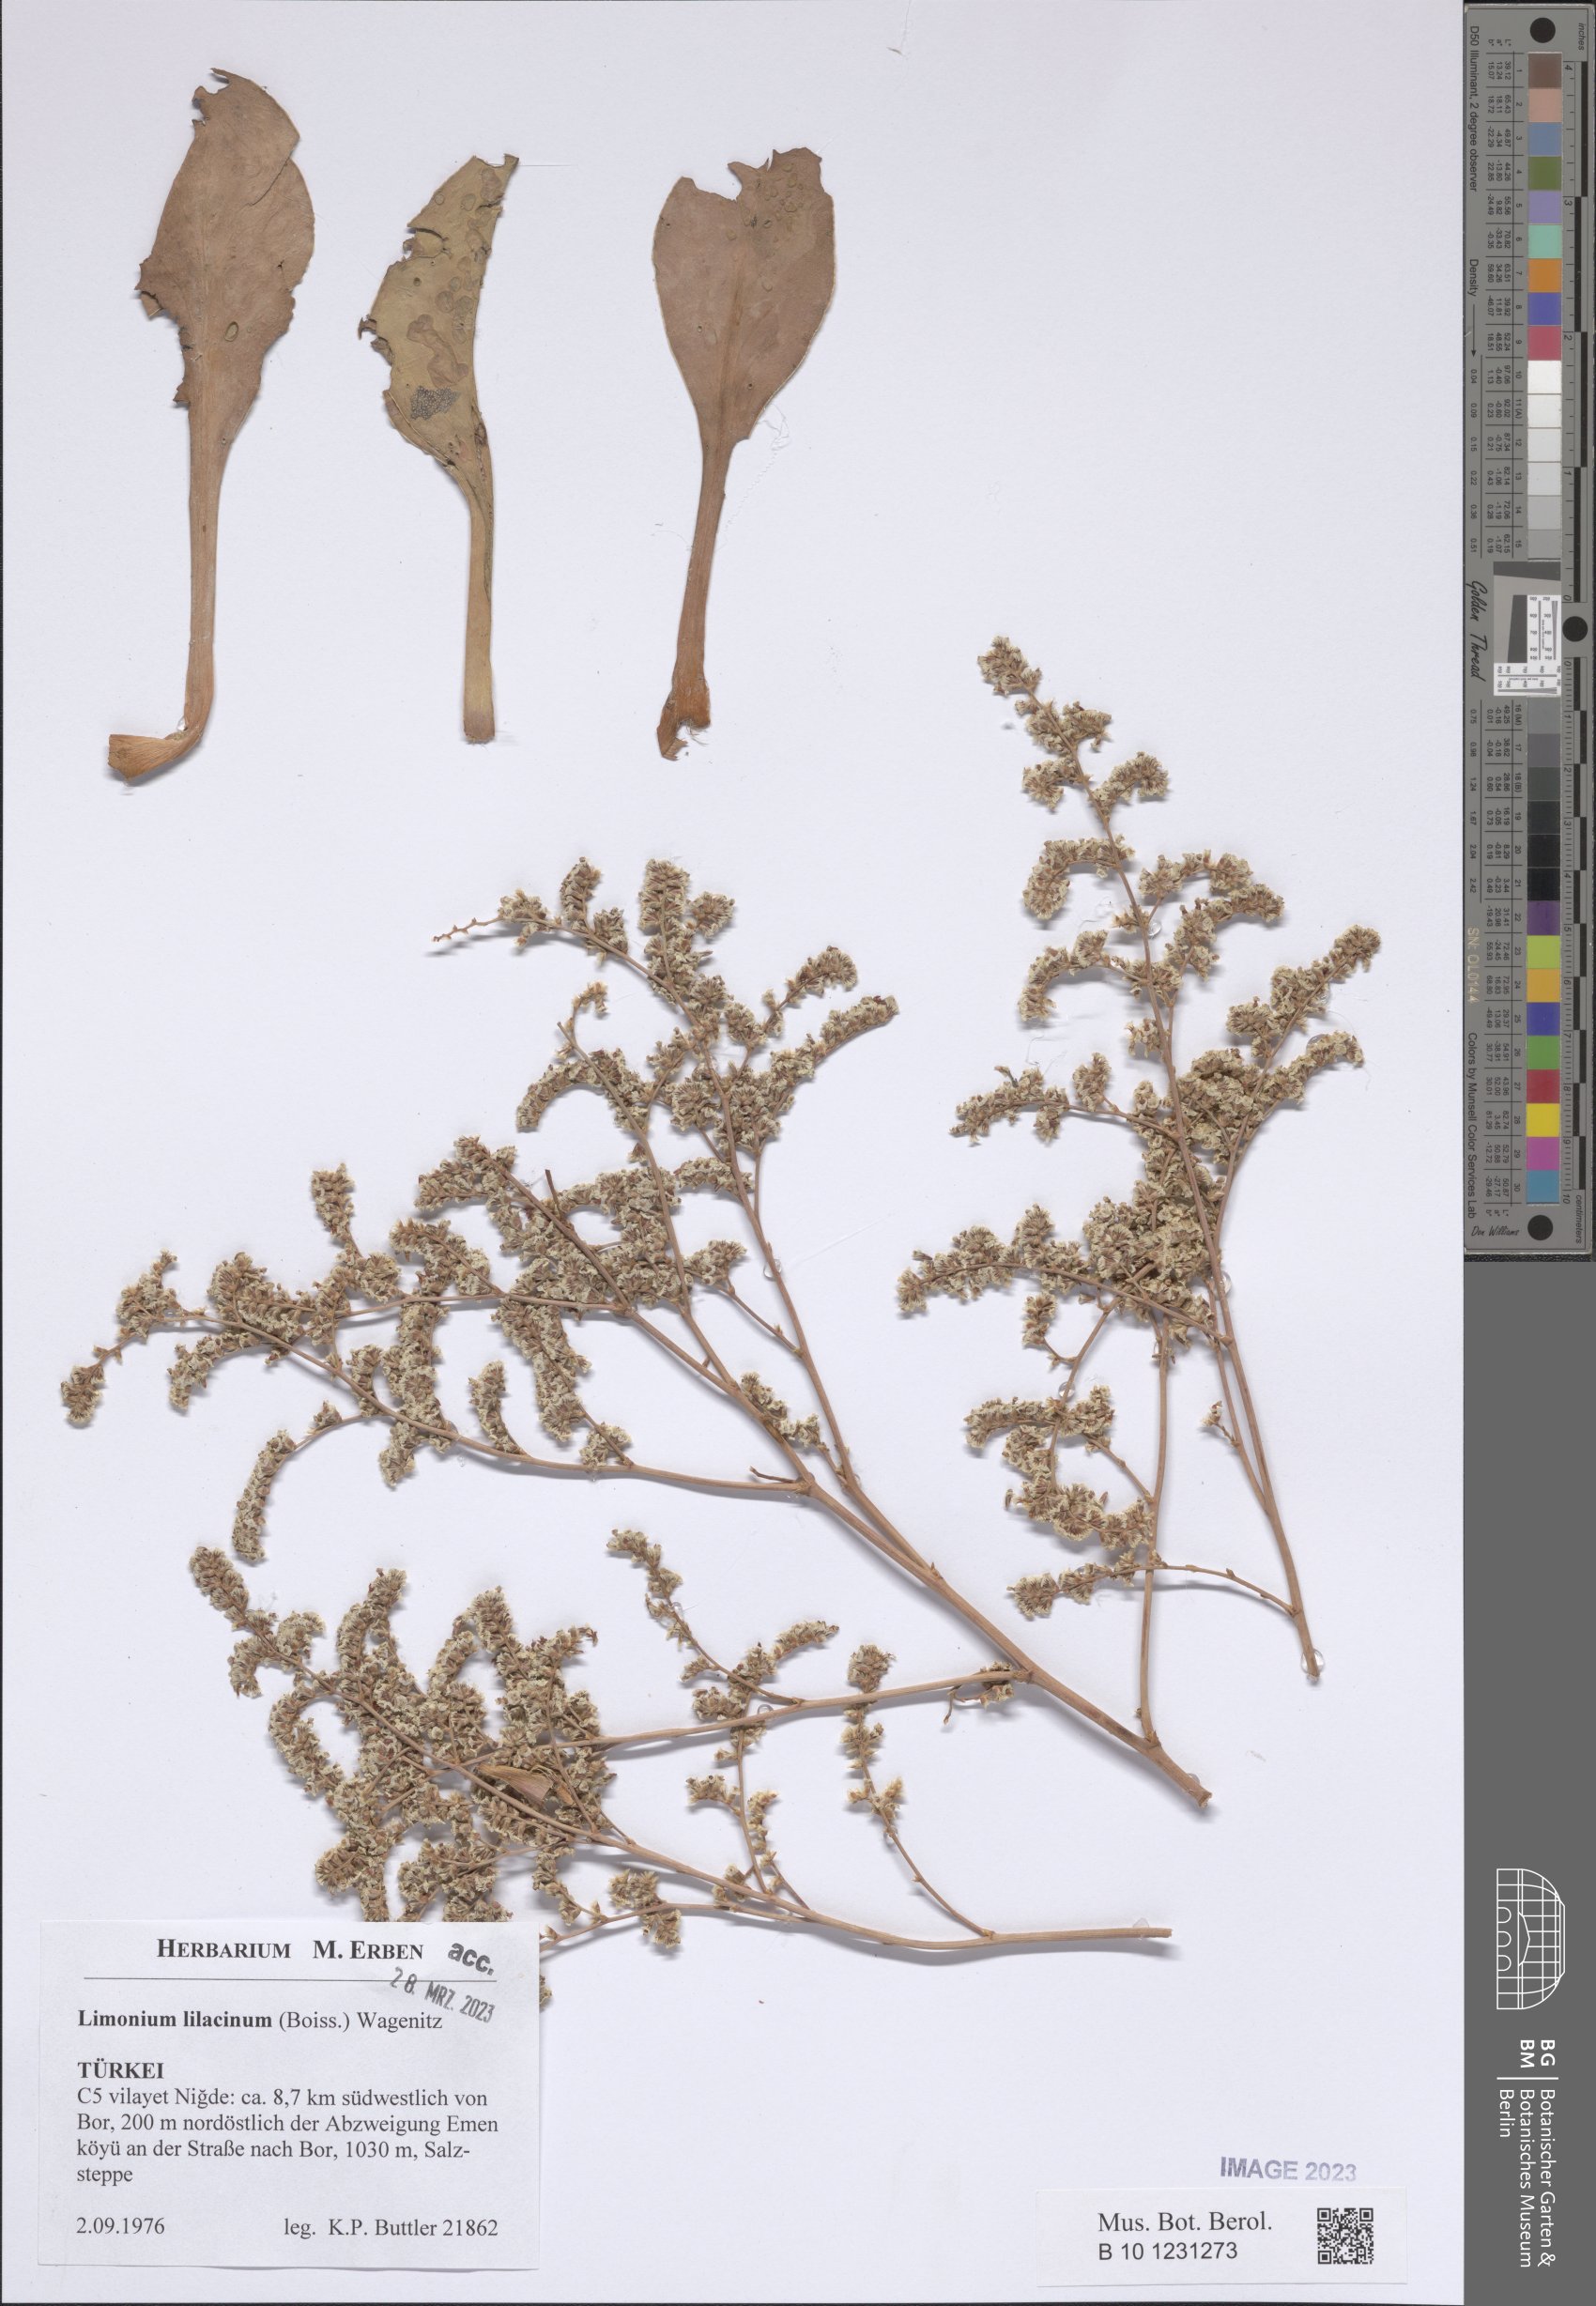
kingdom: Plantae
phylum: Tracheophyta
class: Magnoliopsida
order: Caryophyllales
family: Plumbaginaceae
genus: Limonium
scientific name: Limonium lilacinum
